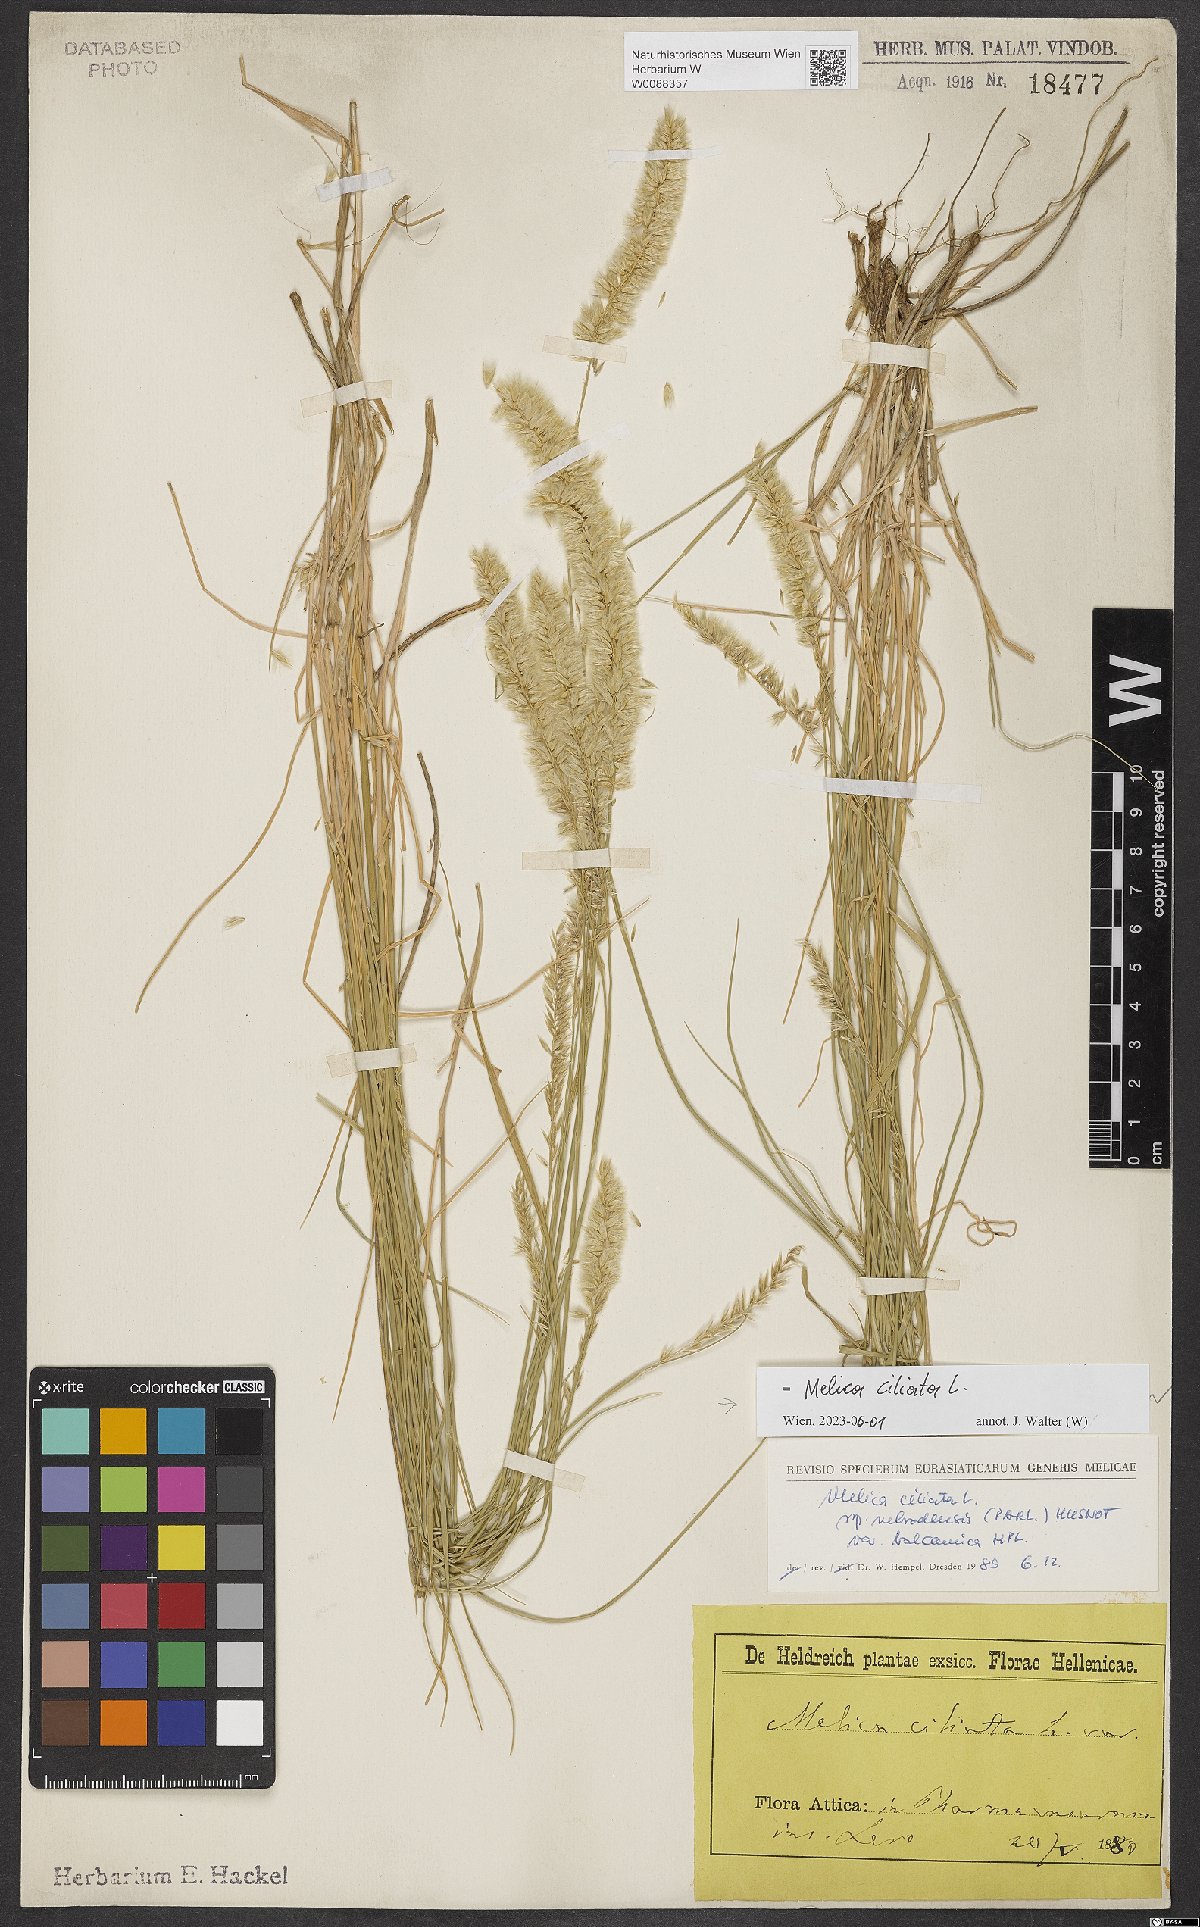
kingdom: Plantae
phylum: Tracheophyta
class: Liliopsida
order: Poales
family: Poaceae
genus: Melica
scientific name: Melica ciliata
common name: Hairy melicgrass
